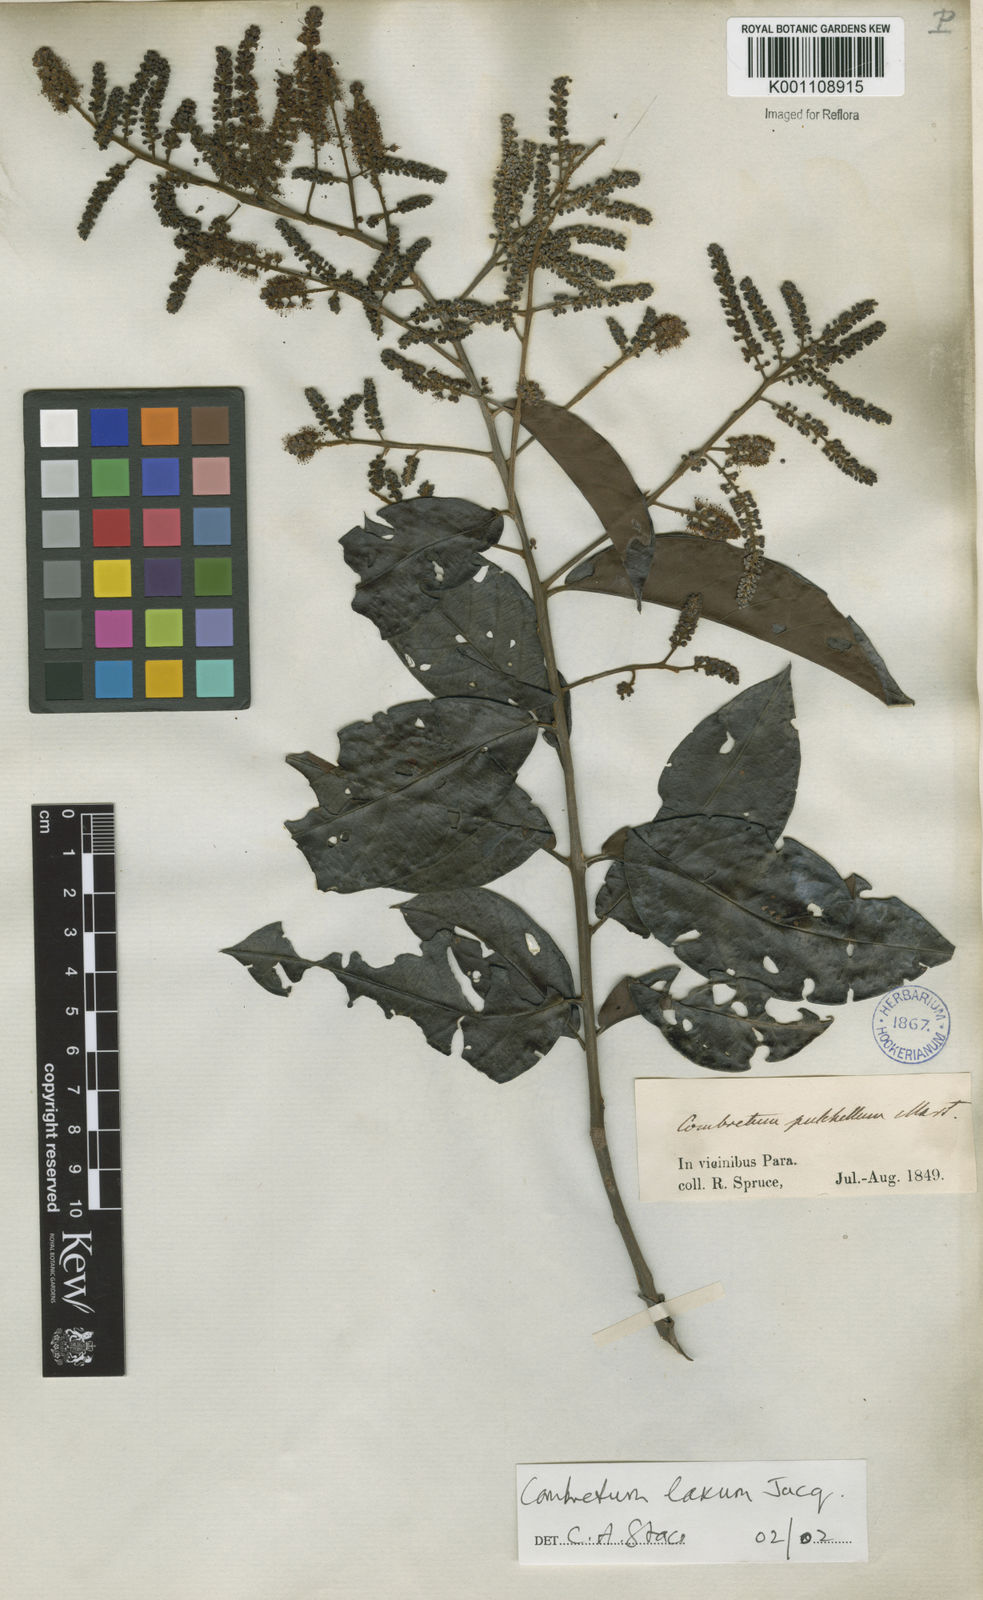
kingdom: Plantae
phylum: Tracheophyta
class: Magnoliopsida
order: Myrtales
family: Combretaceae
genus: Combretum
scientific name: Combretum laxum
